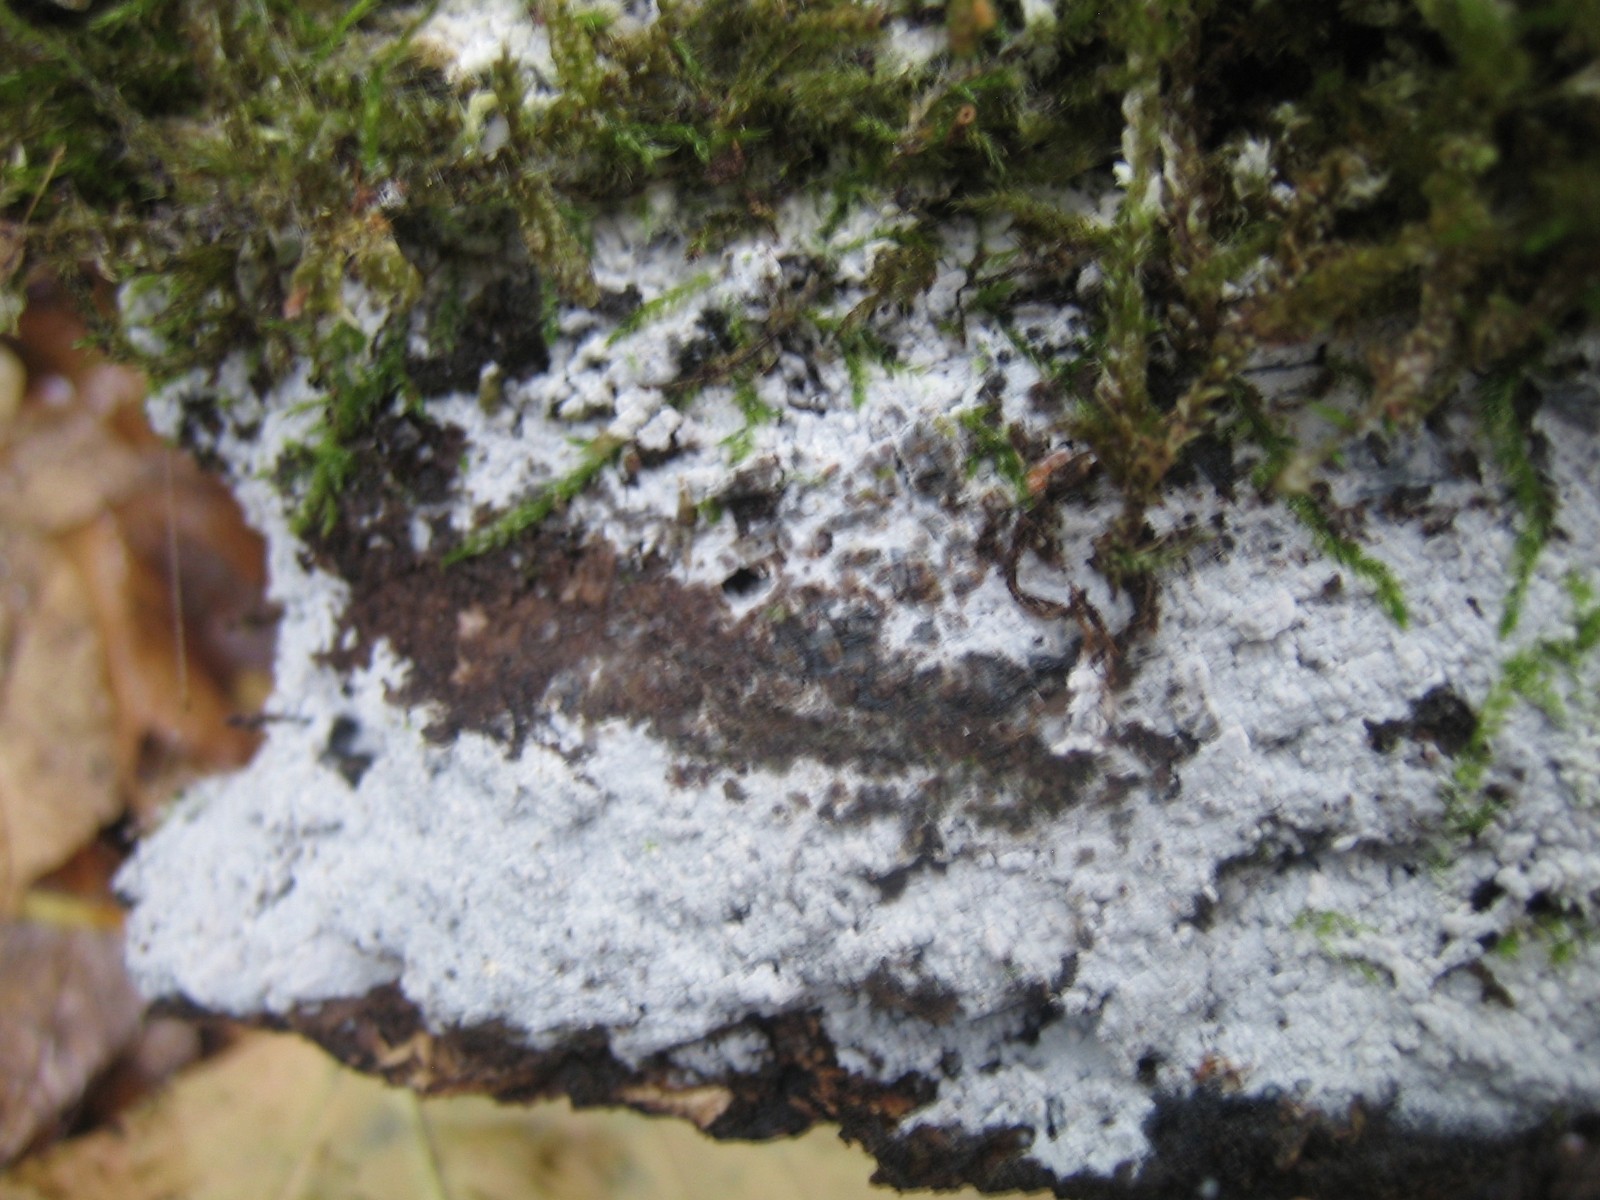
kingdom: Fungi
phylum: Basidiomycota
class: Agaricomycetes
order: Corticiales
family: Corticiaceae
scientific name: Corticiaceae
